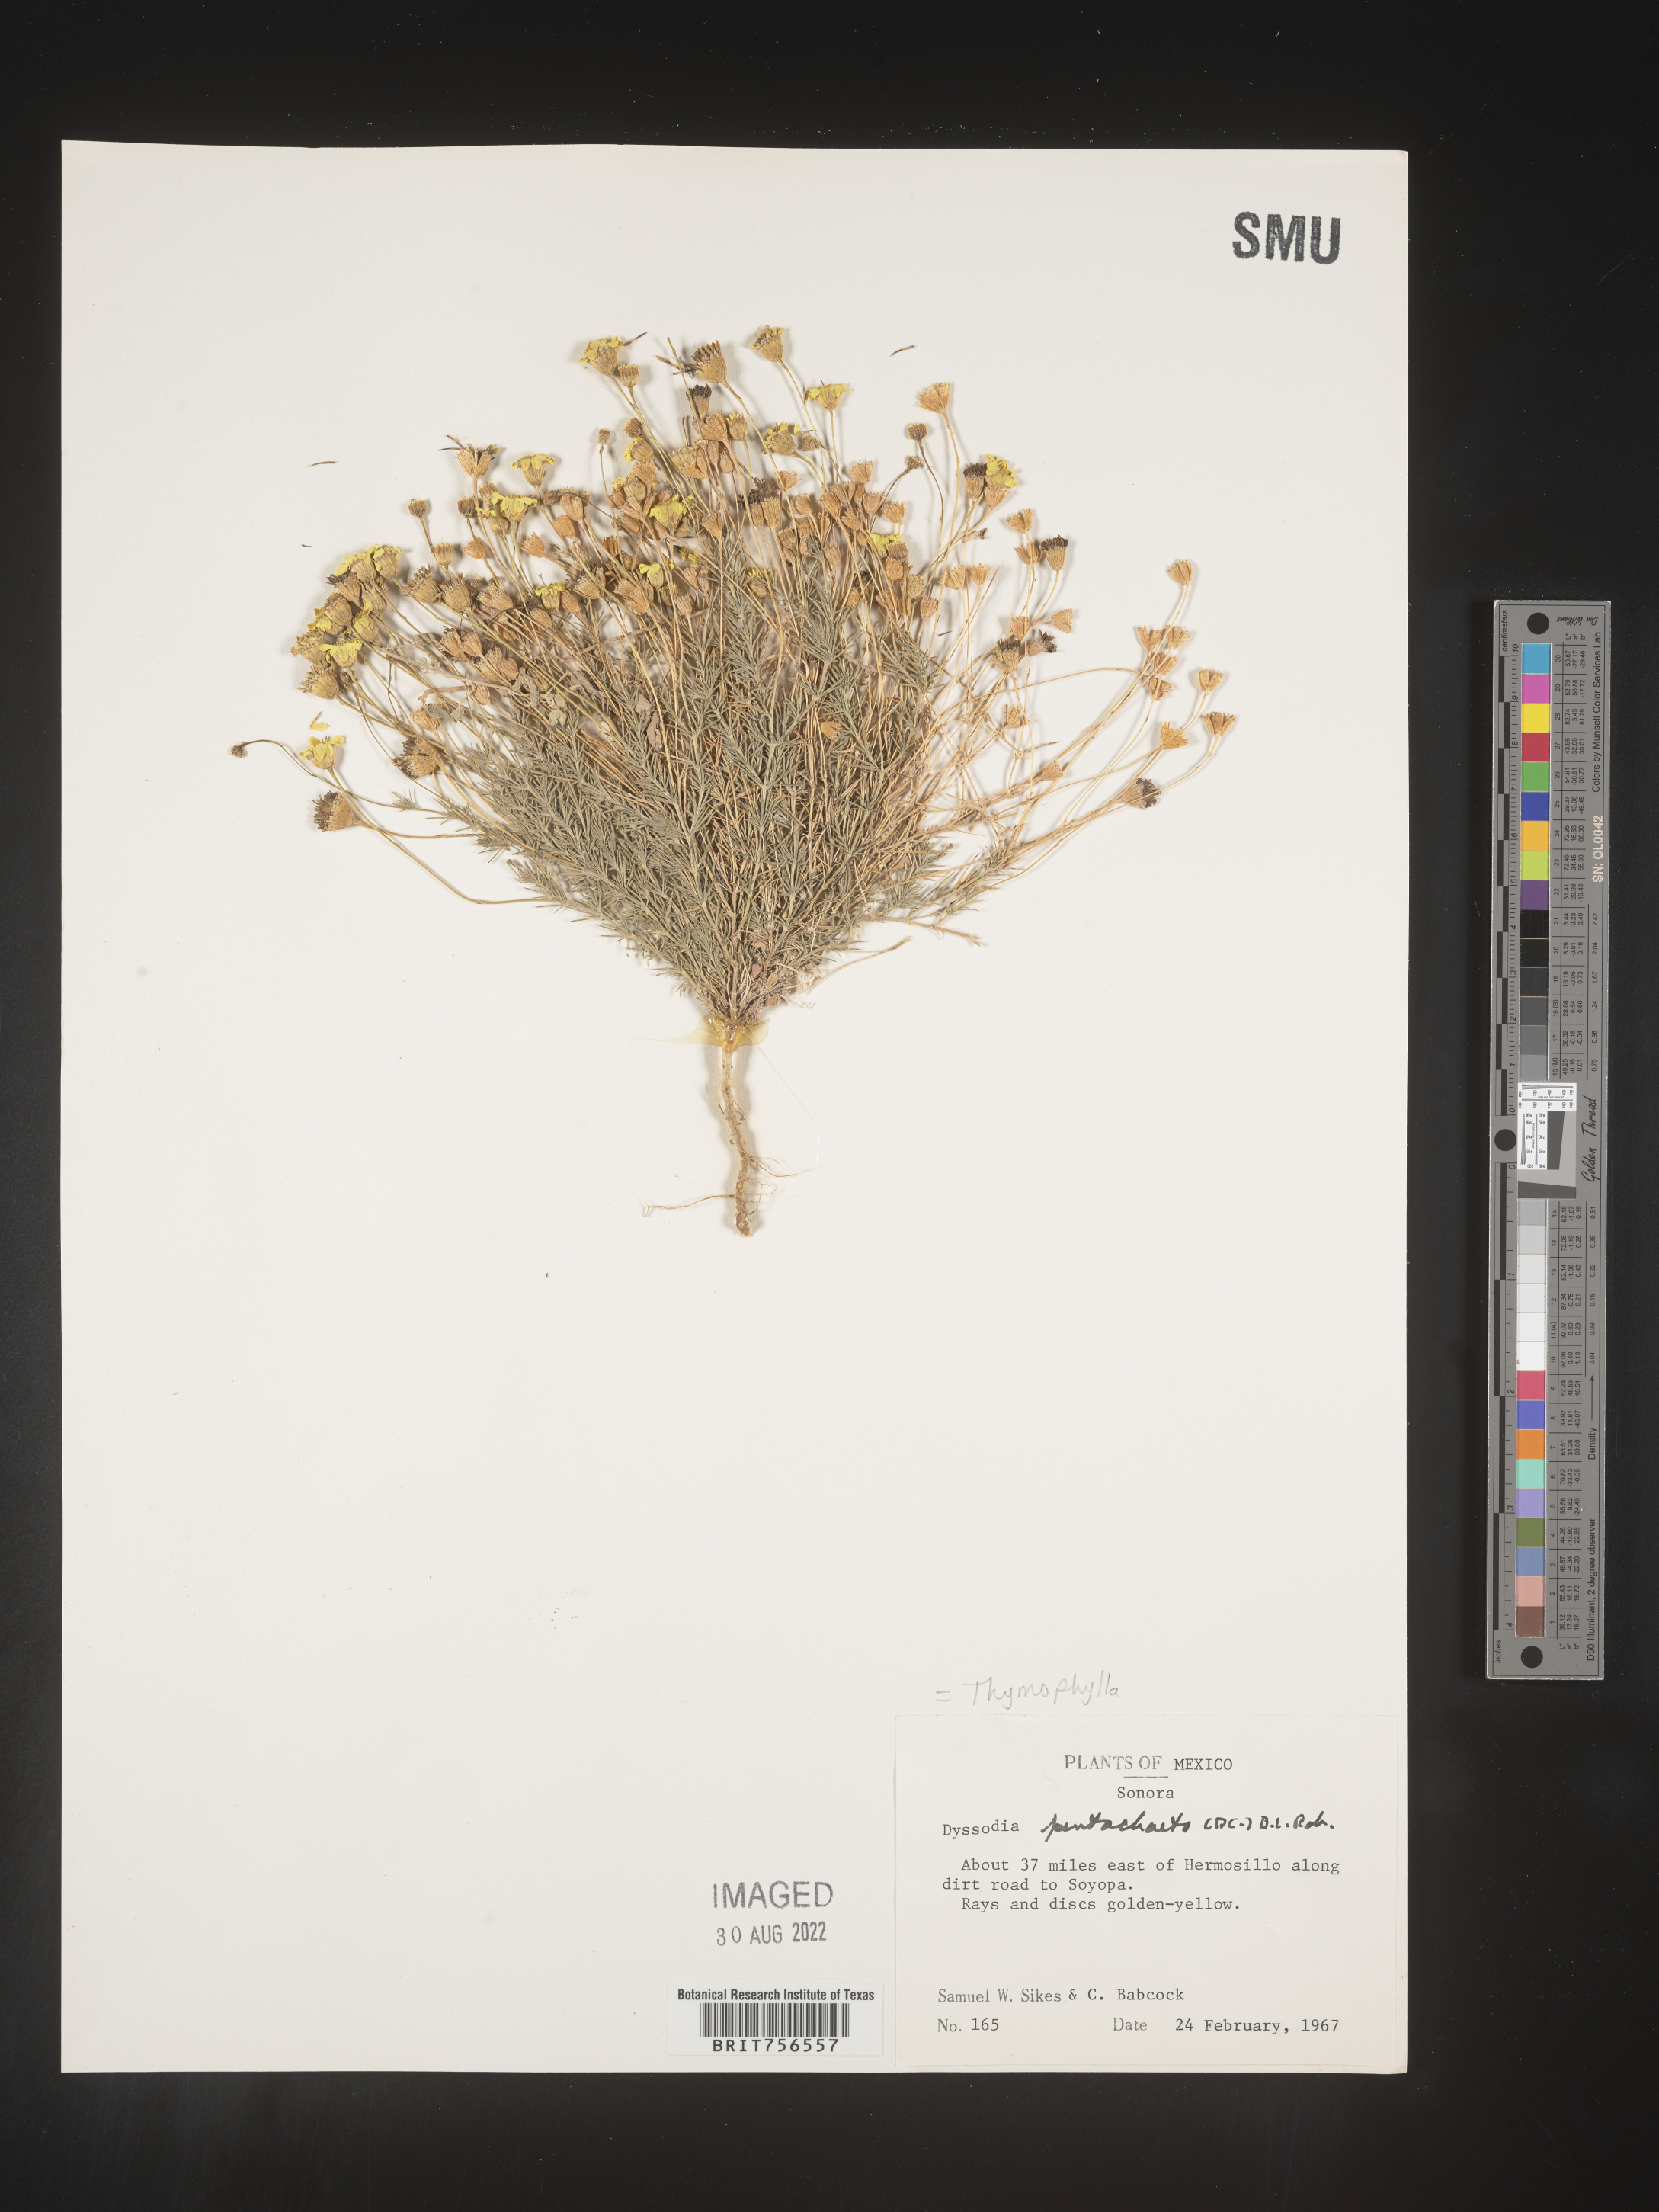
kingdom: Plantae
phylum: Tracheophyta
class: Magnoliopsida
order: Asterales
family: Asteraceae
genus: Thymophylla
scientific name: Thymophylla pentachaeta
